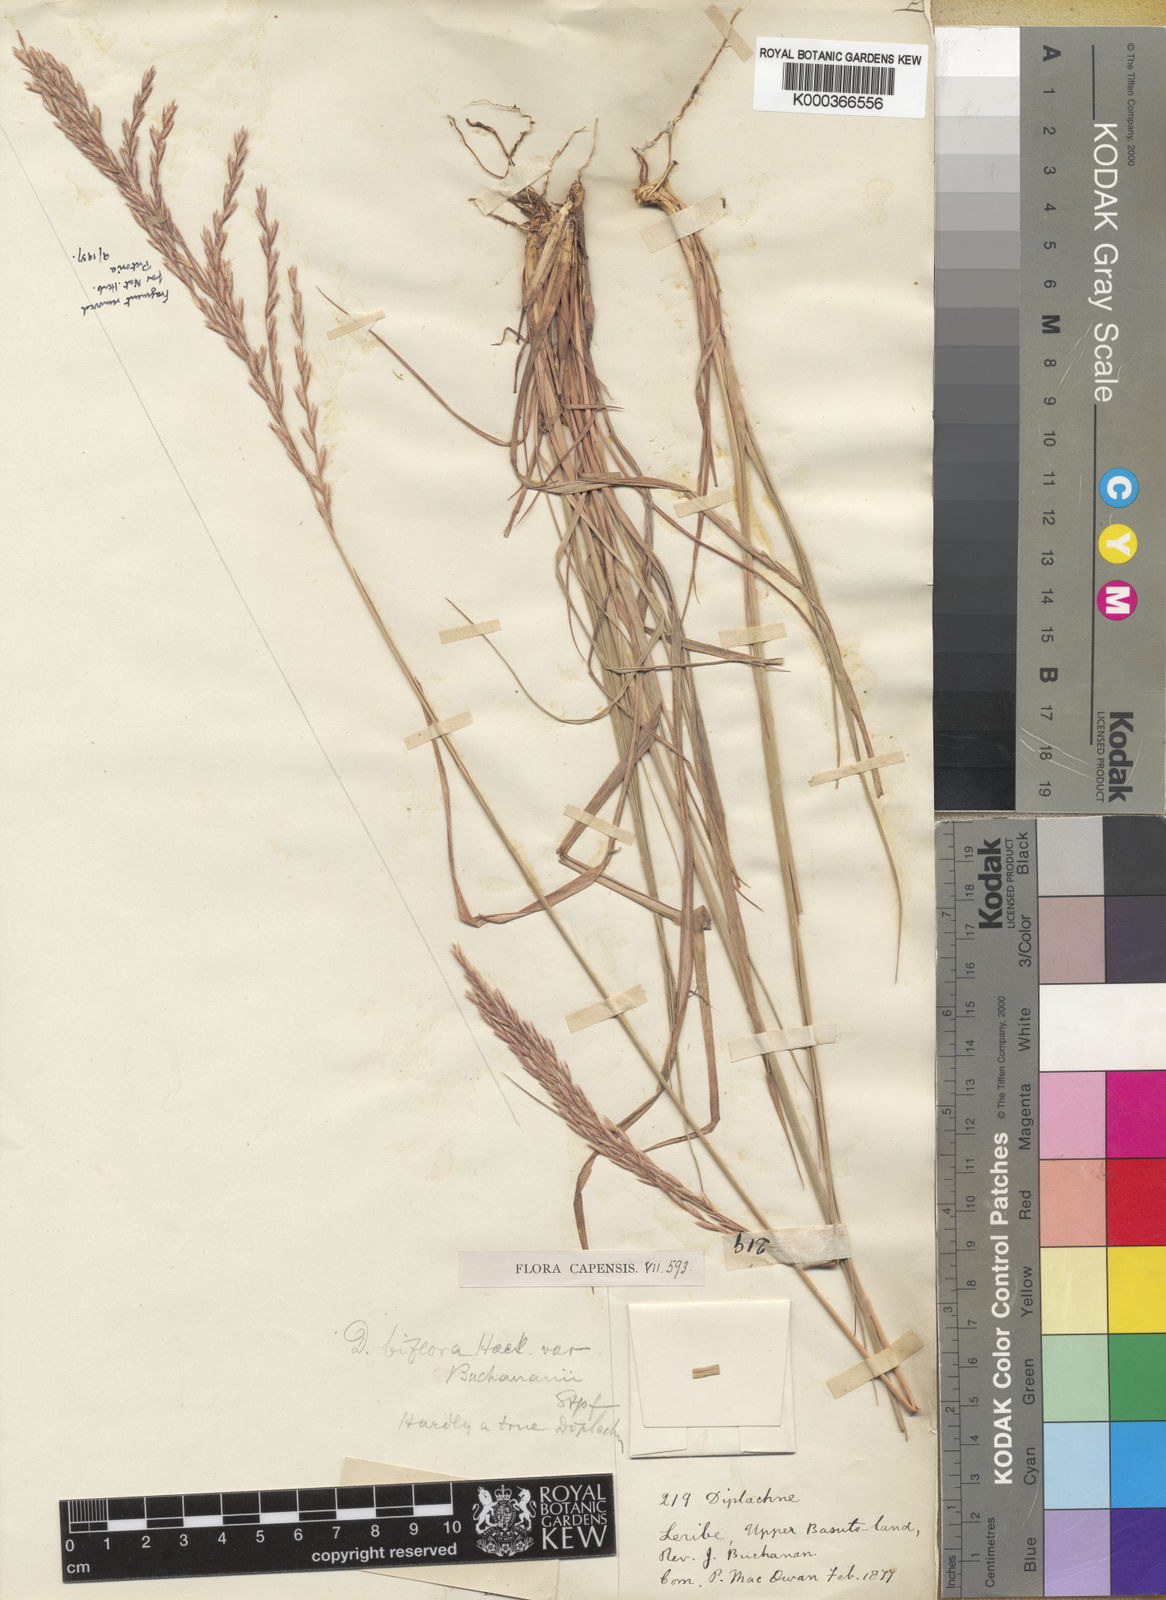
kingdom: Plantae
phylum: Tracheophyta
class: Liliopsida
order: Poales
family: Poaceae
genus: Bewsia
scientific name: Bewsia biflora
